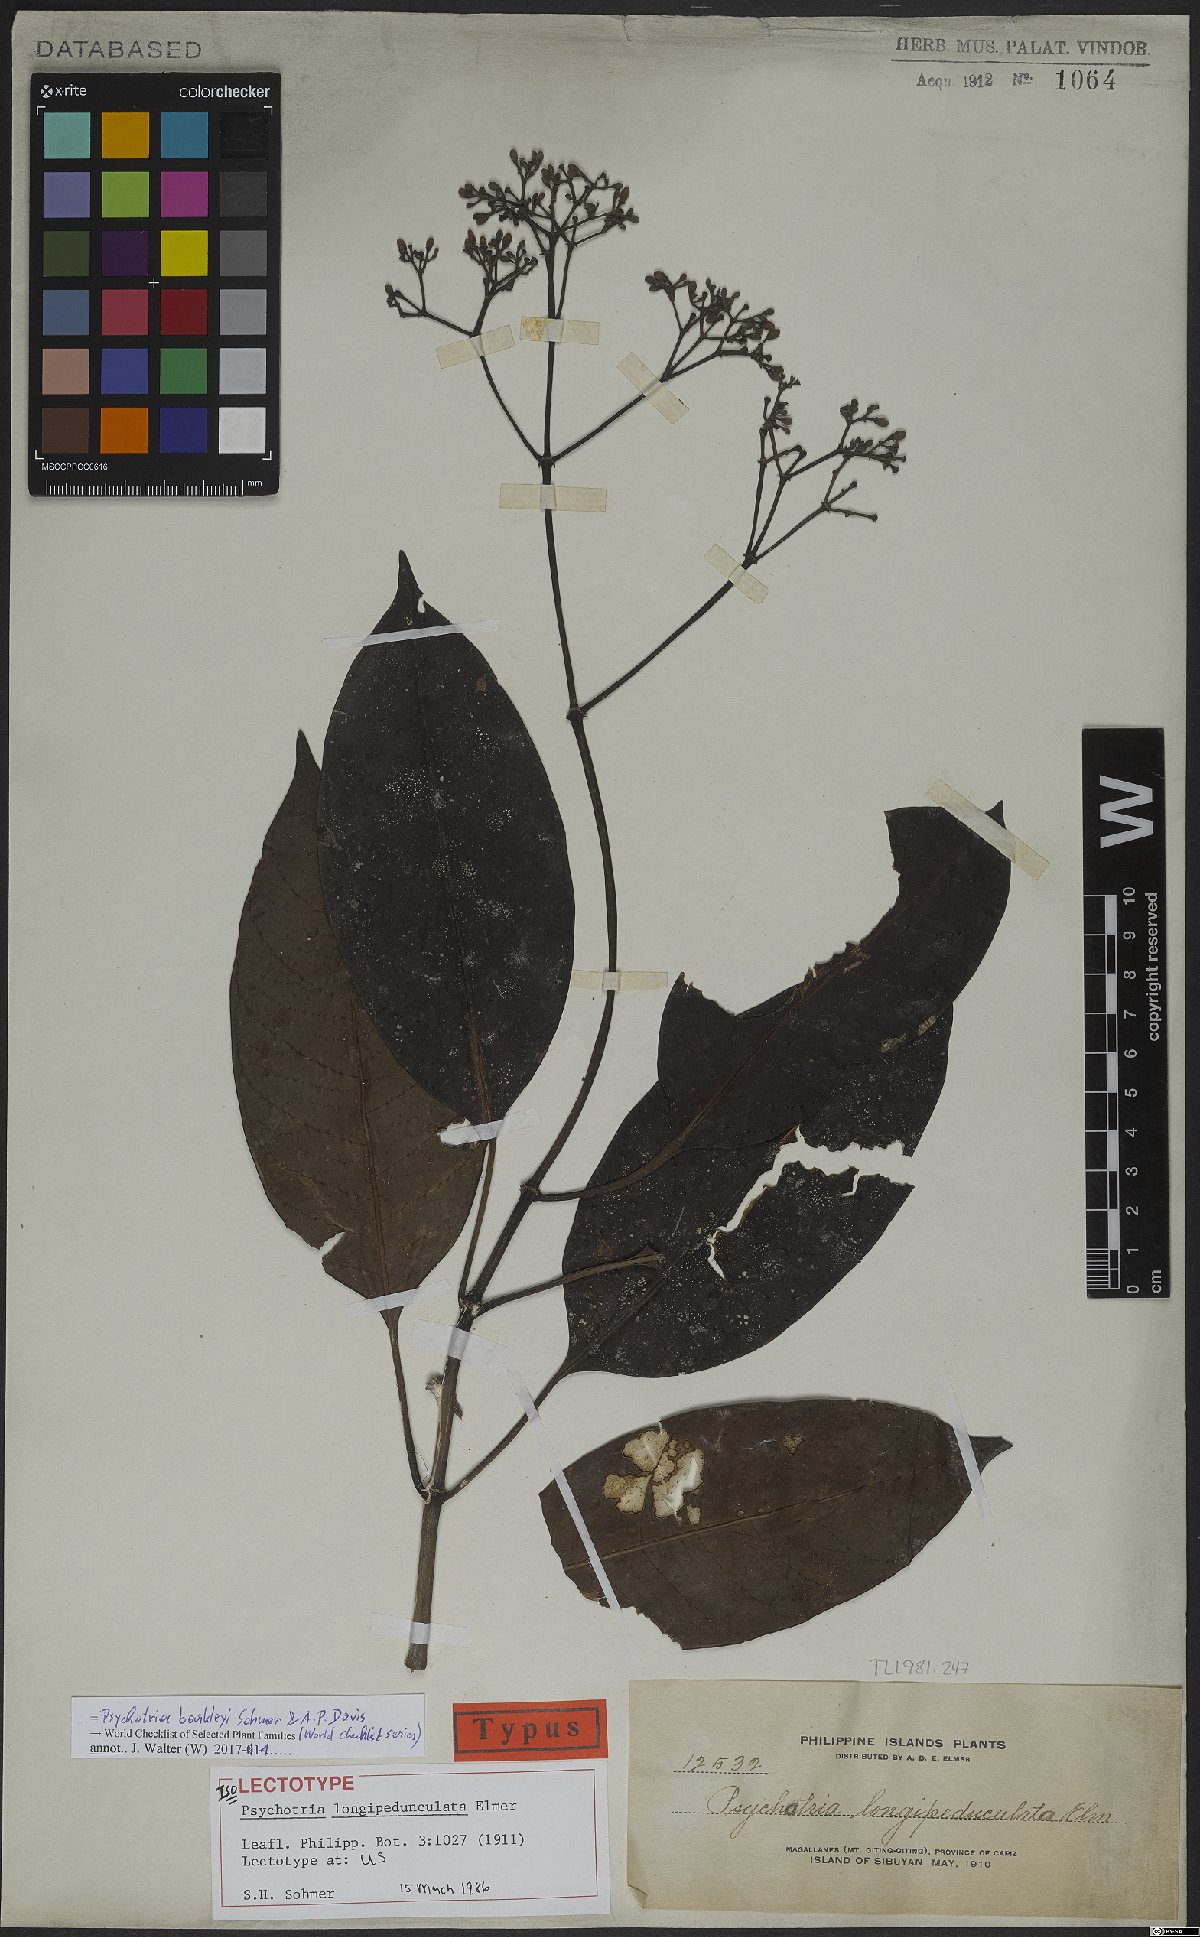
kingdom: Plantae
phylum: Tracheophyta
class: Magnoliopsida
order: Gentianales
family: Rubiaceae
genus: Psychotria
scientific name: Psychotria barkleyi
